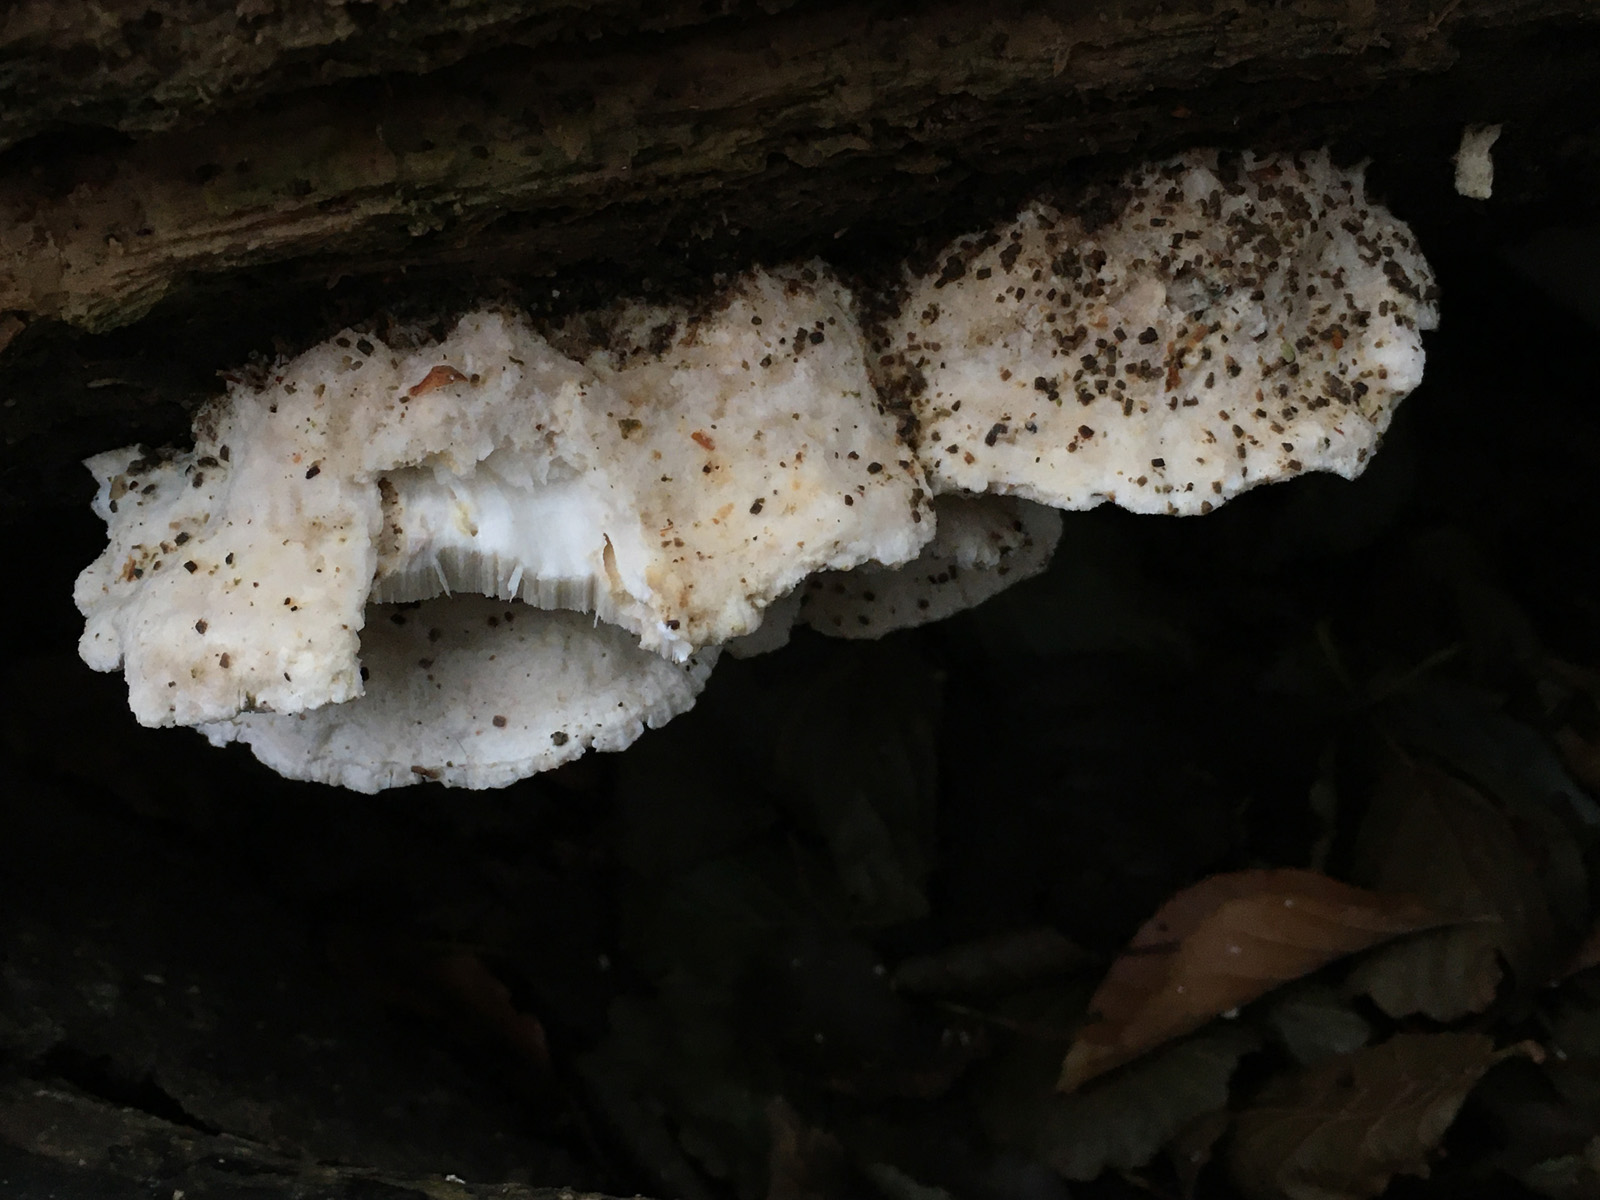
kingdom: Fungi
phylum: Basidiomycota
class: Agaricomycetes
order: Polyporales
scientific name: Polyporales
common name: poresvampordenen
